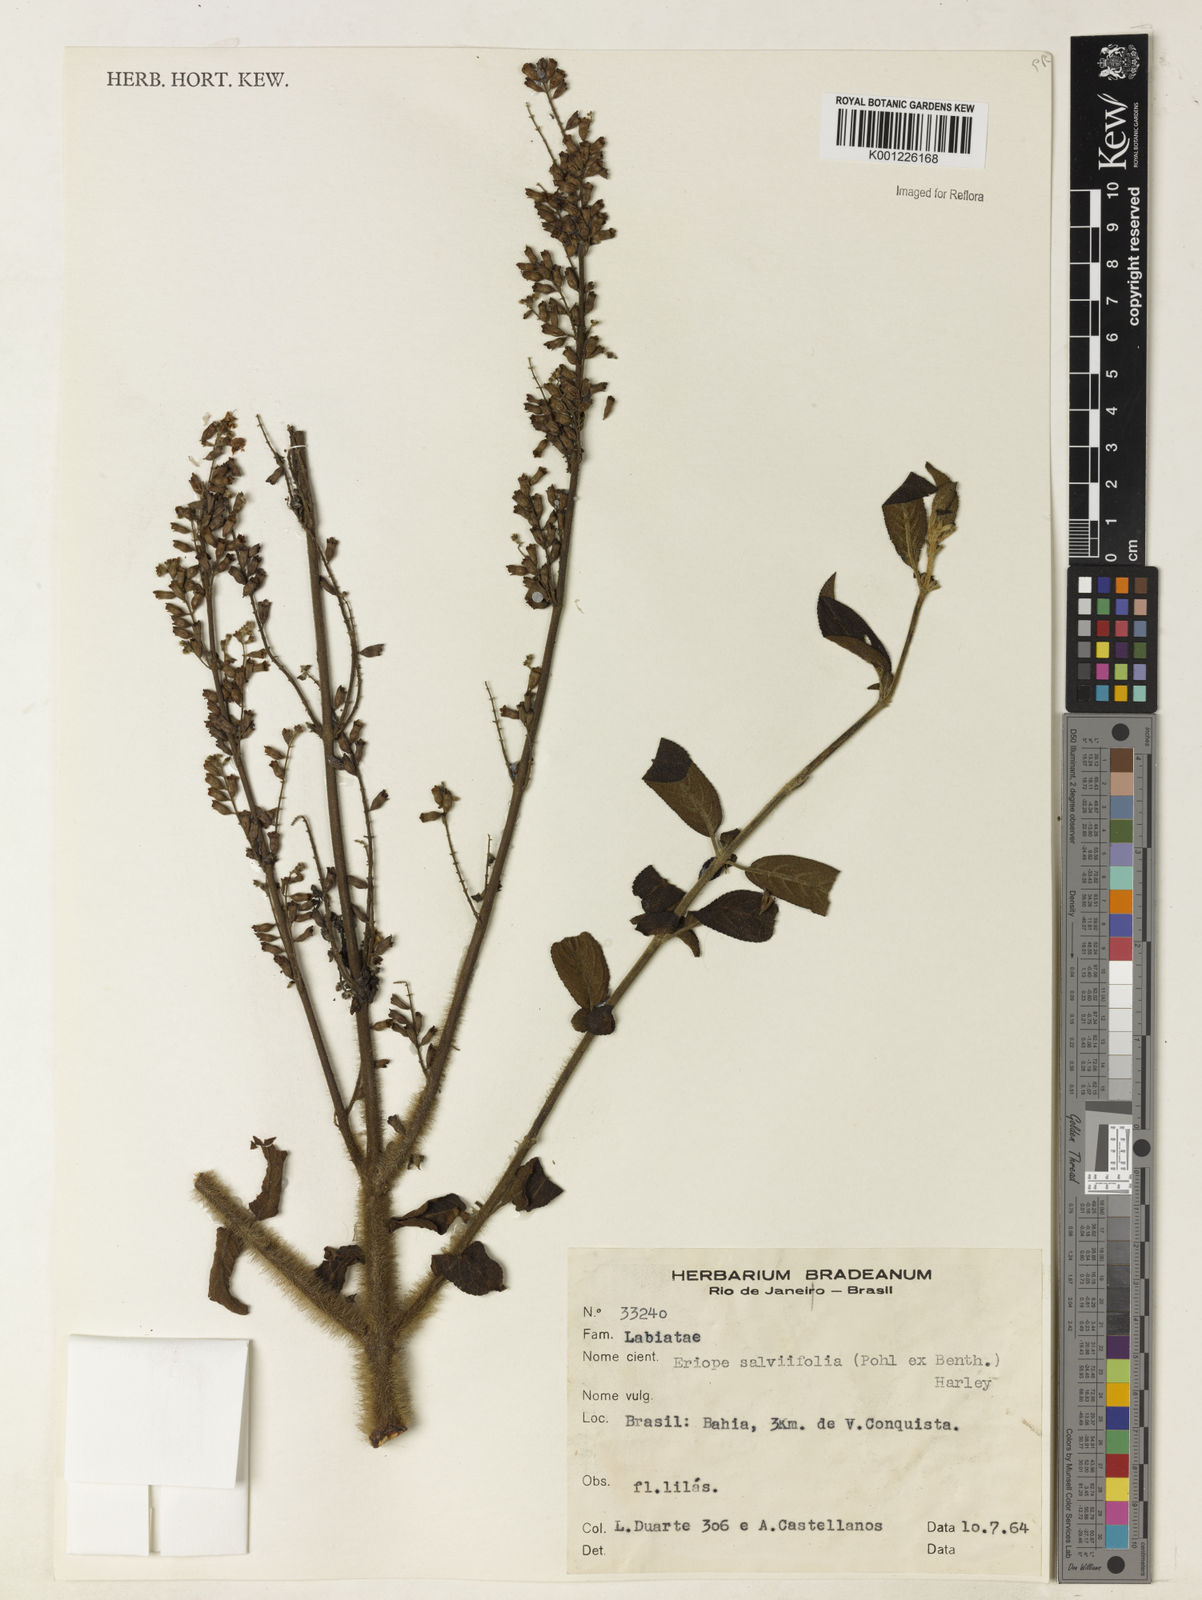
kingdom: Plantae
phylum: Tracheophyta
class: Magnoliopsida
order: Lamiales
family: Lamiaceae
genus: Eriope
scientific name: Eriope salviifolia
